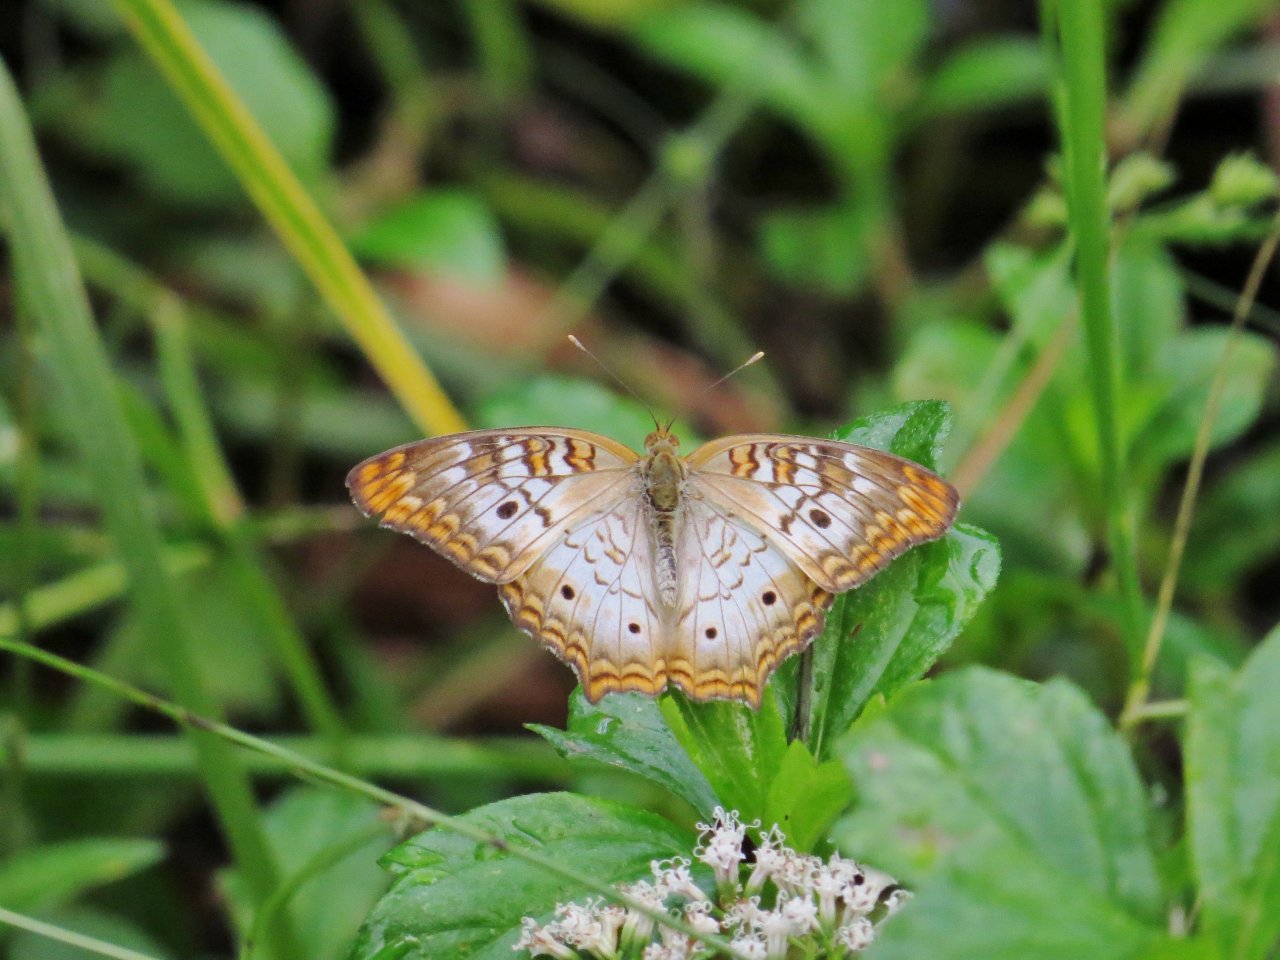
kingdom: Animalia
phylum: Arthropoda
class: Insecta
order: Lepidoptera
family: Nymphalidae
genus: Anartia
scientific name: Anartia jatrophae
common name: White Peacock
